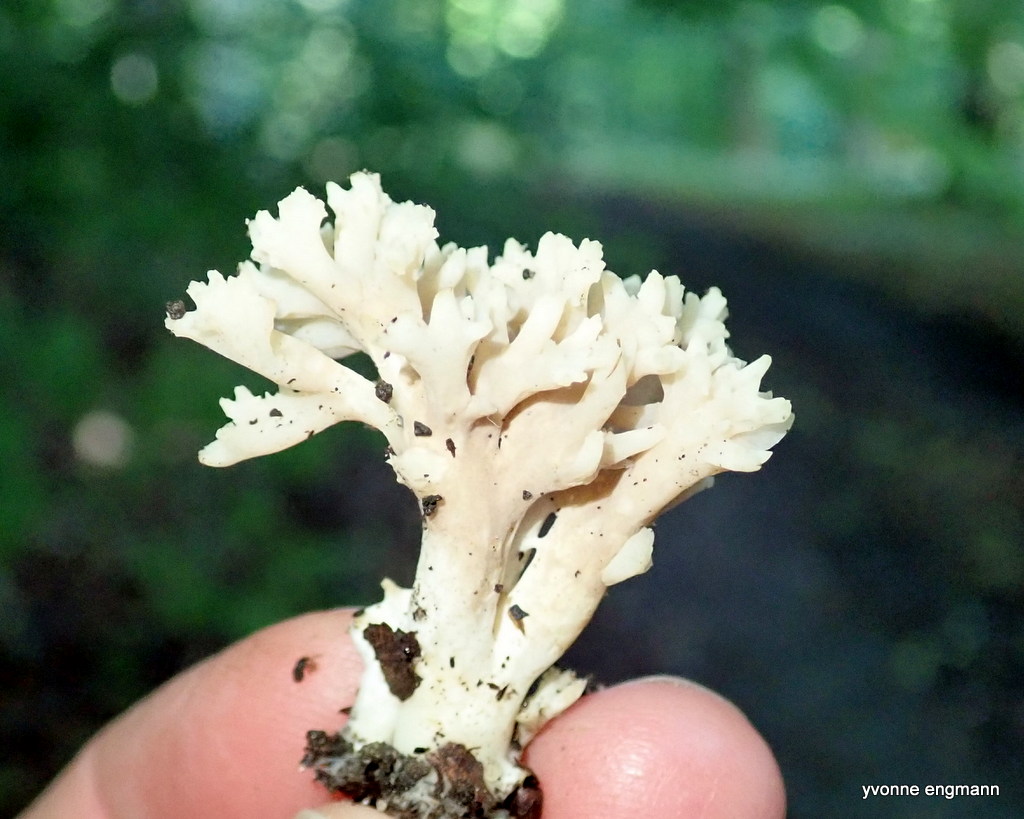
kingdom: Fungi
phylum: Basidiomycota
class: Agaricomycetes
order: Gomphales
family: Gomphaceae
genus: Ramaria
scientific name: Ramaria stricta
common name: rank koralsvamp
